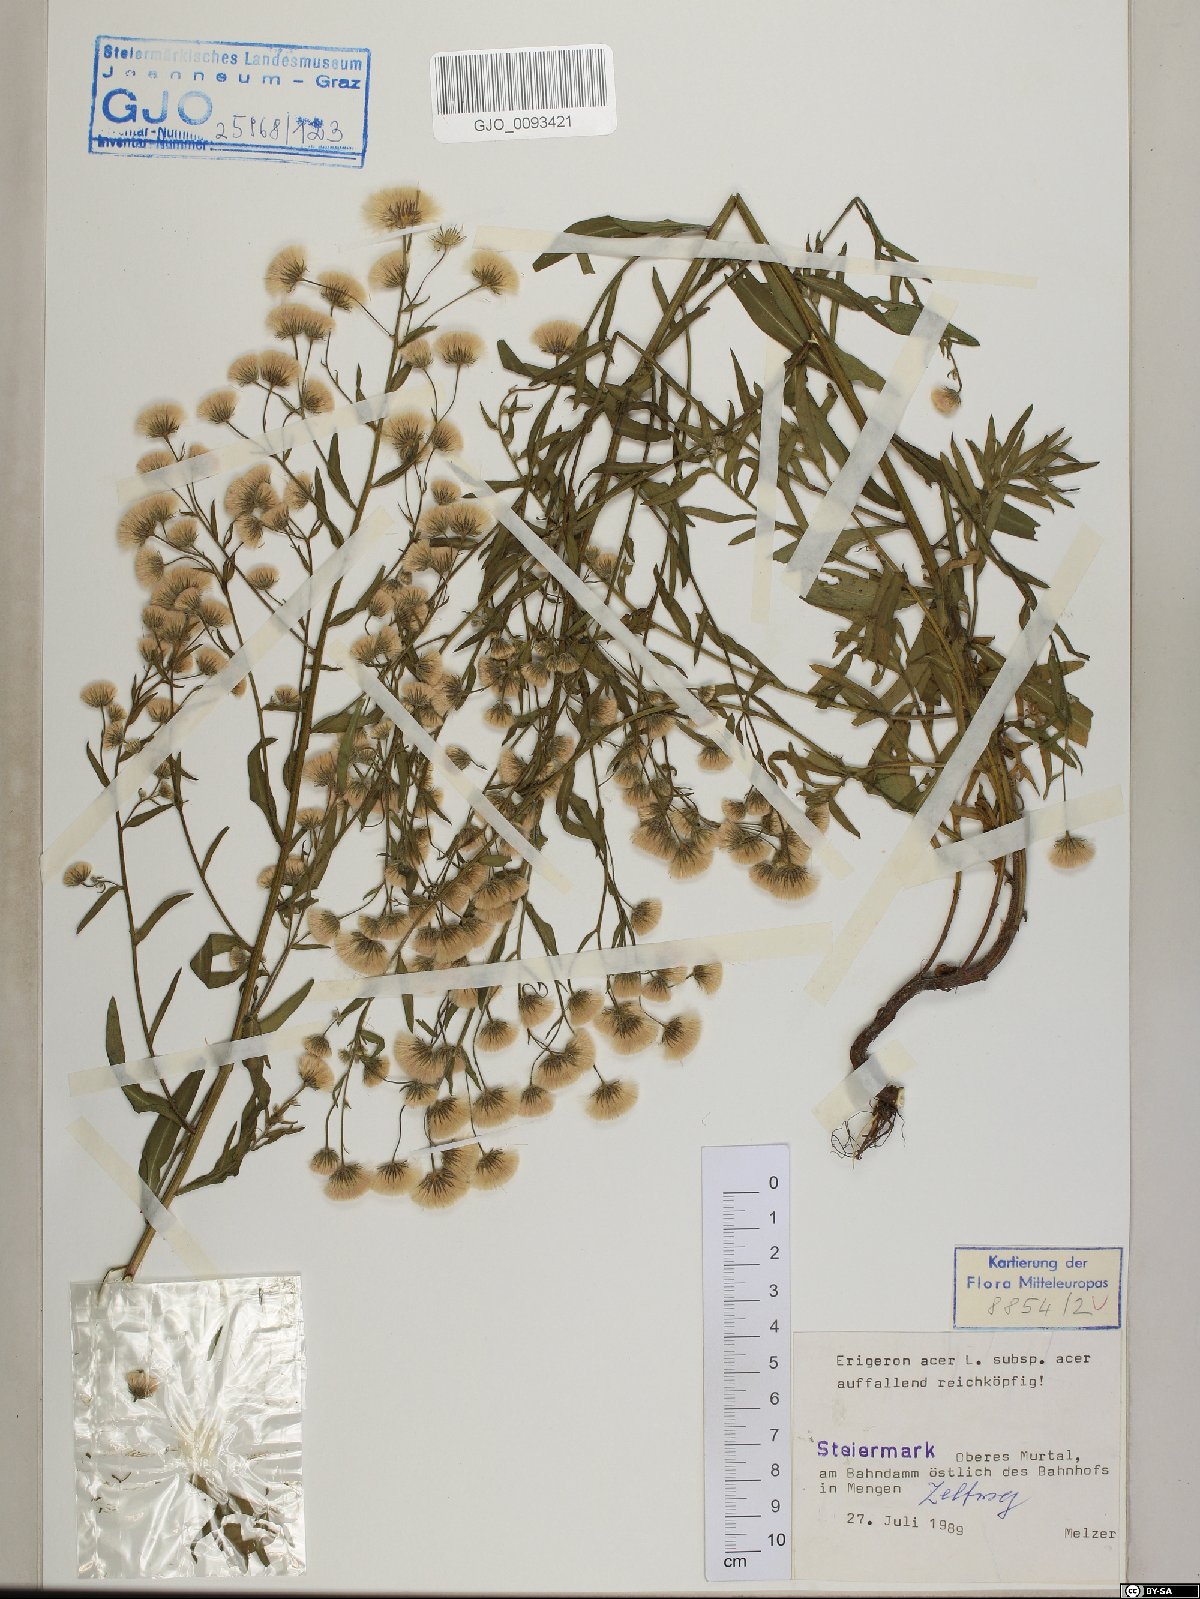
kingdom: Plantae
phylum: Tracheophyta
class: Magnoliopsida
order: Asterales
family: Asteraceae
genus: Erigeron
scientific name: Erigeron acris
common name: Blue fleabane
